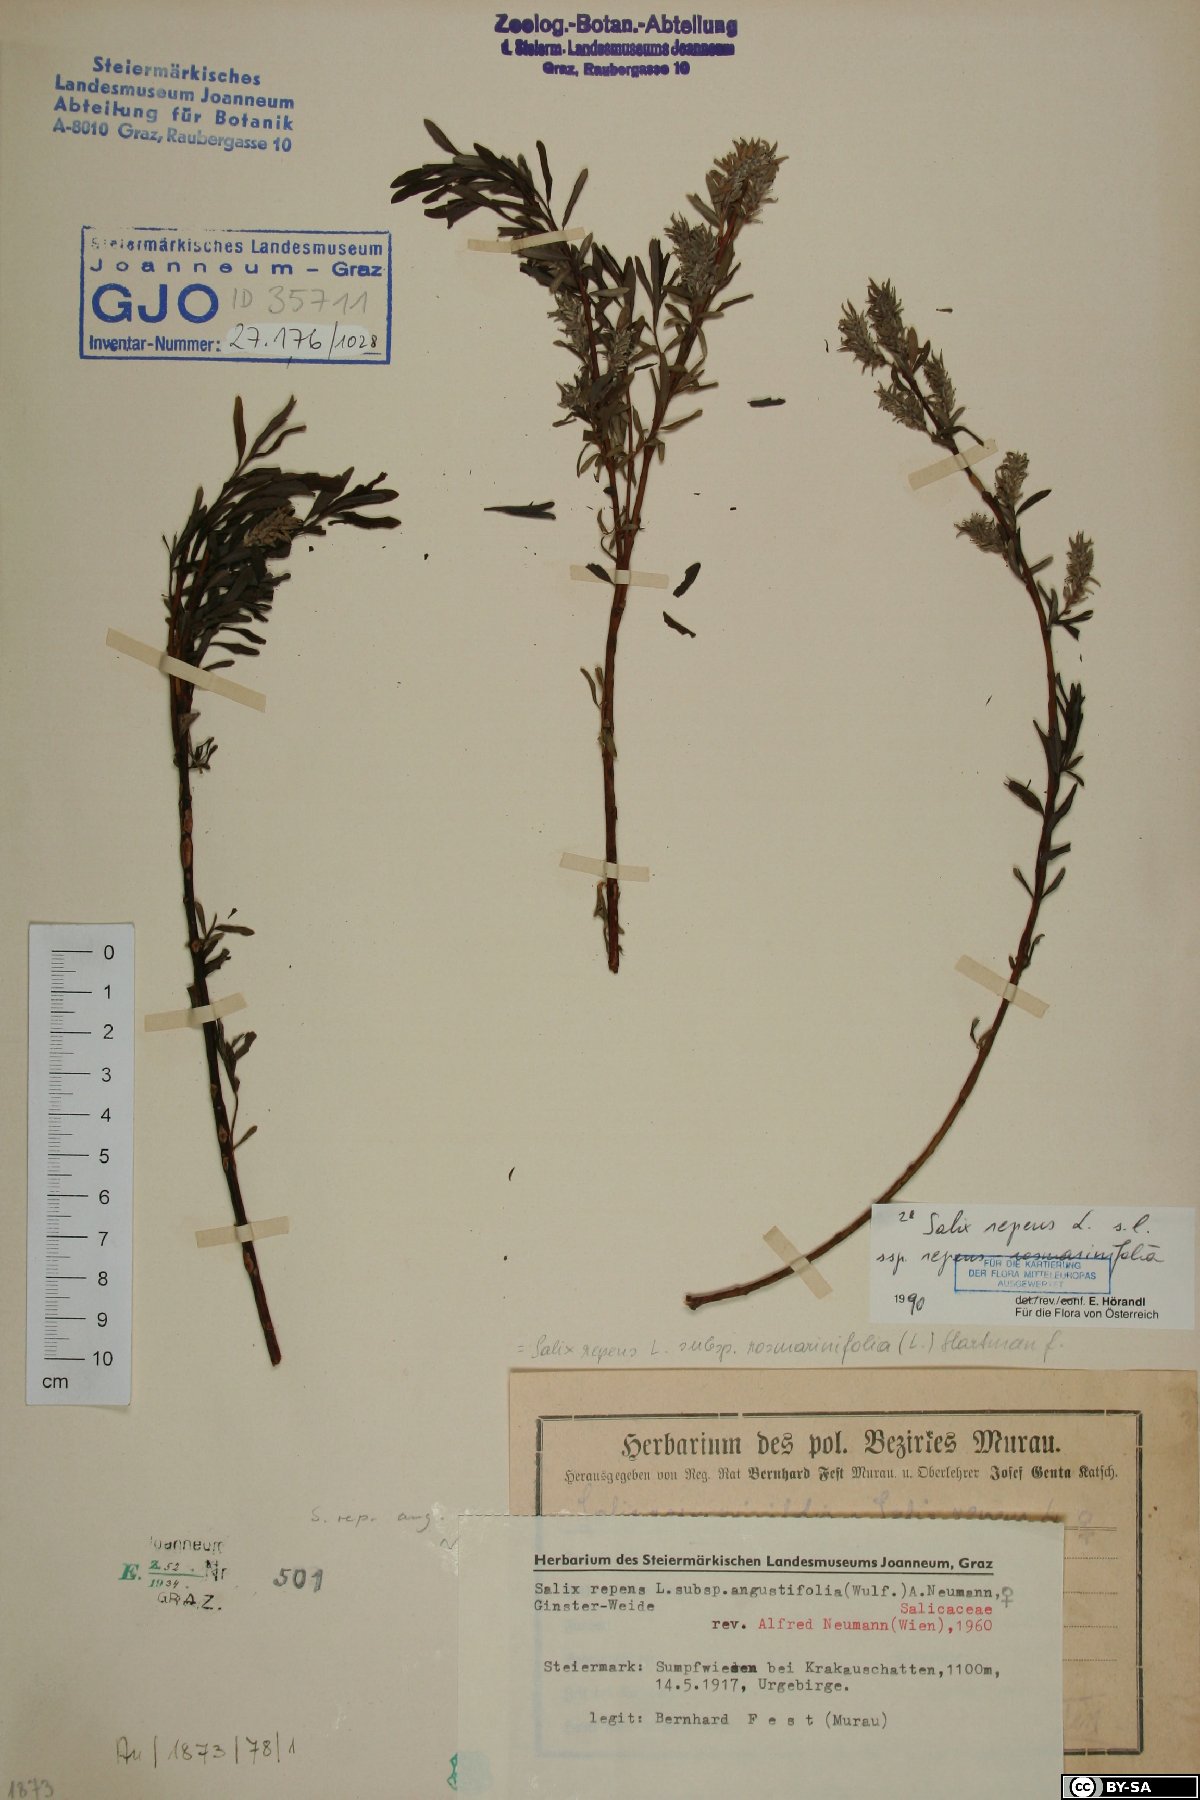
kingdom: Plantae
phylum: Tracheophyta
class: Magnoliopsida
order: Malpighiales
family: Salicaceae
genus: Salix
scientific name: Salix repens
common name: Creeping willow
